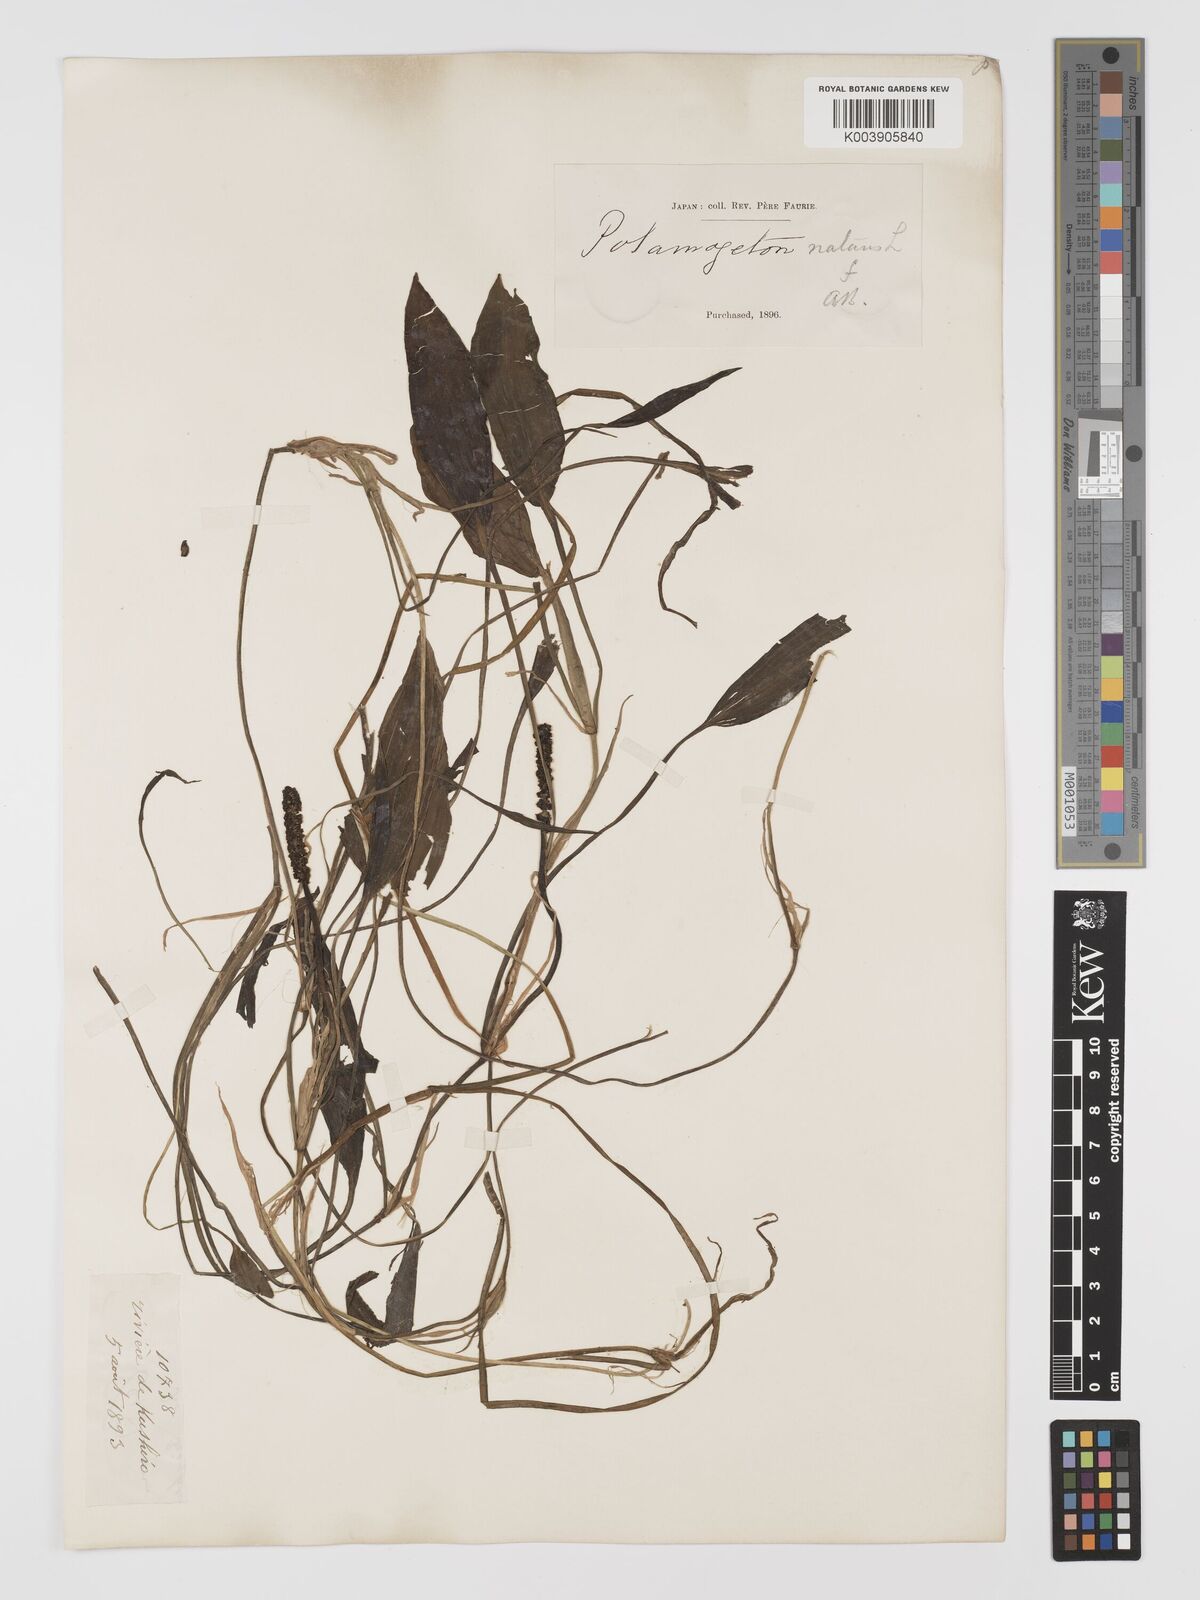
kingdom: Plantae
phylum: Tracheophyta
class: Liliopsida
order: Alismatales
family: Potamogetonaceae
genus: Potamogeton
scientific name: Potamogeton natans
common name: Broad-leaved pondweed
